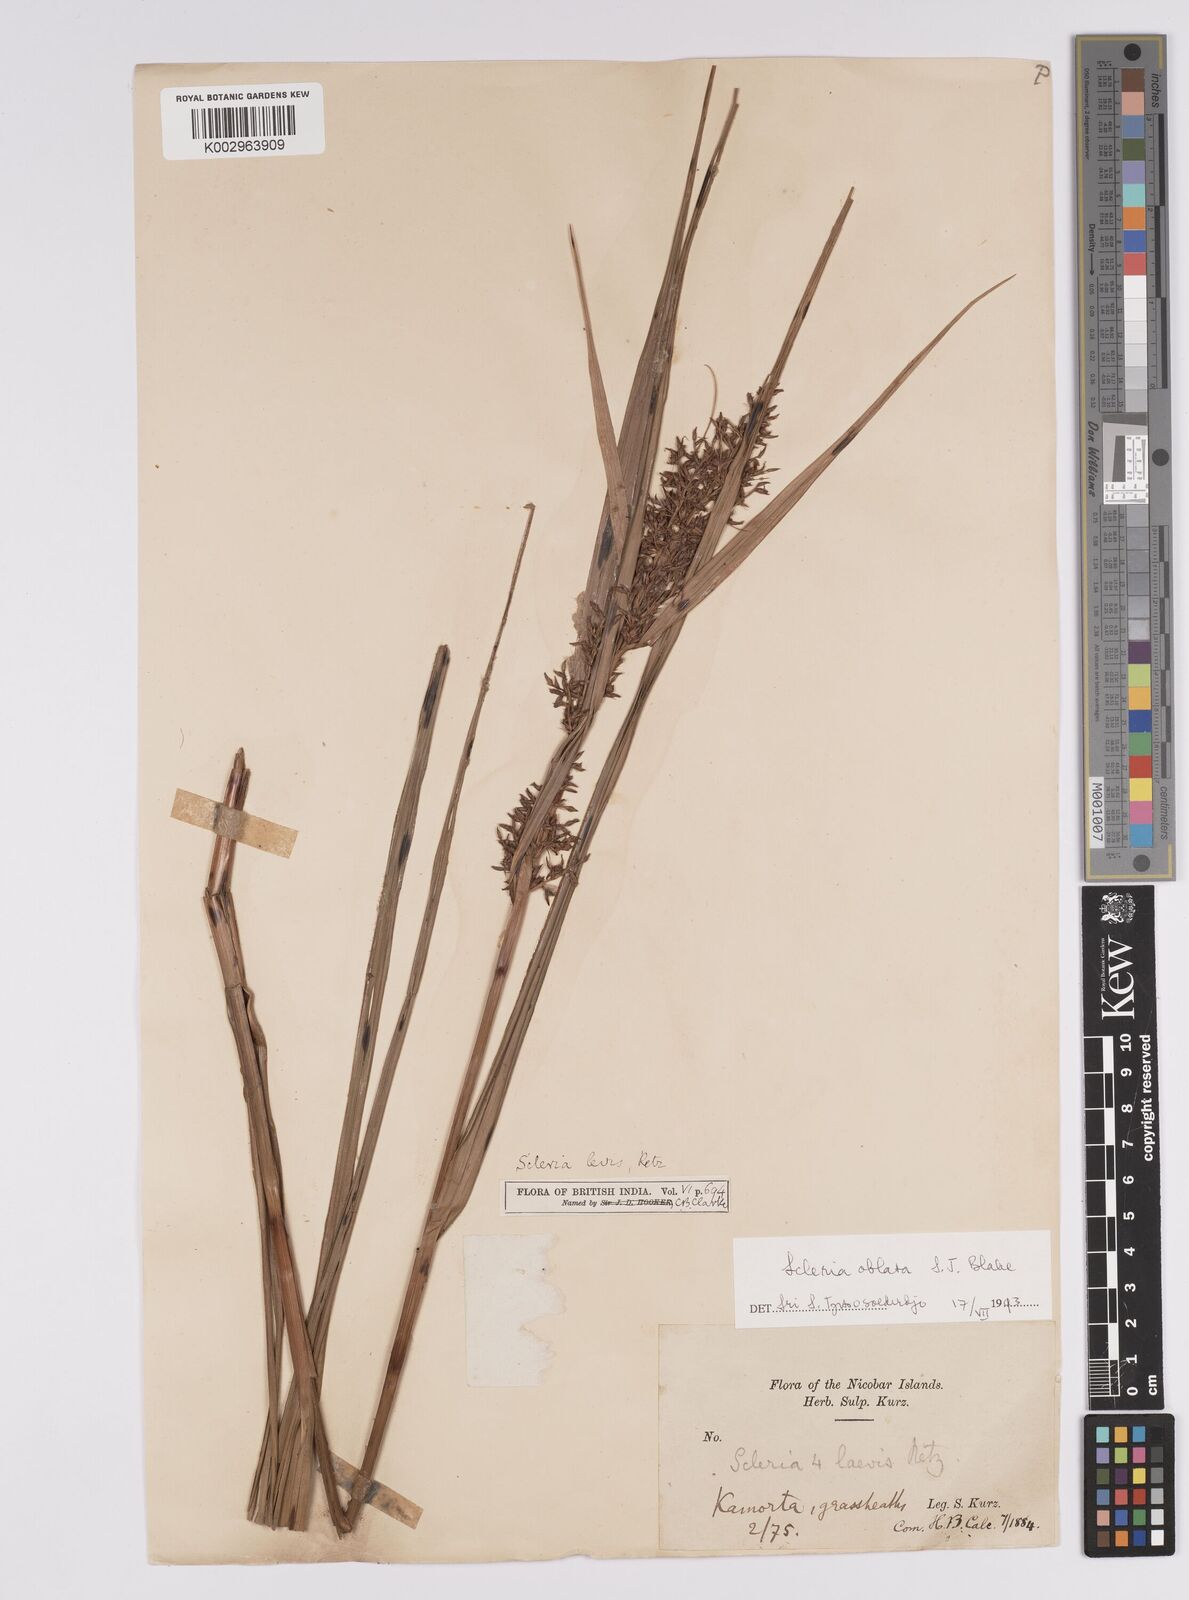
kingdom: Plantae
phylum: Tracheophyta
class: Liliopsida
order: Poales
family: Cyperaceae
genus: Scleria
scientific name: Scleria levis
